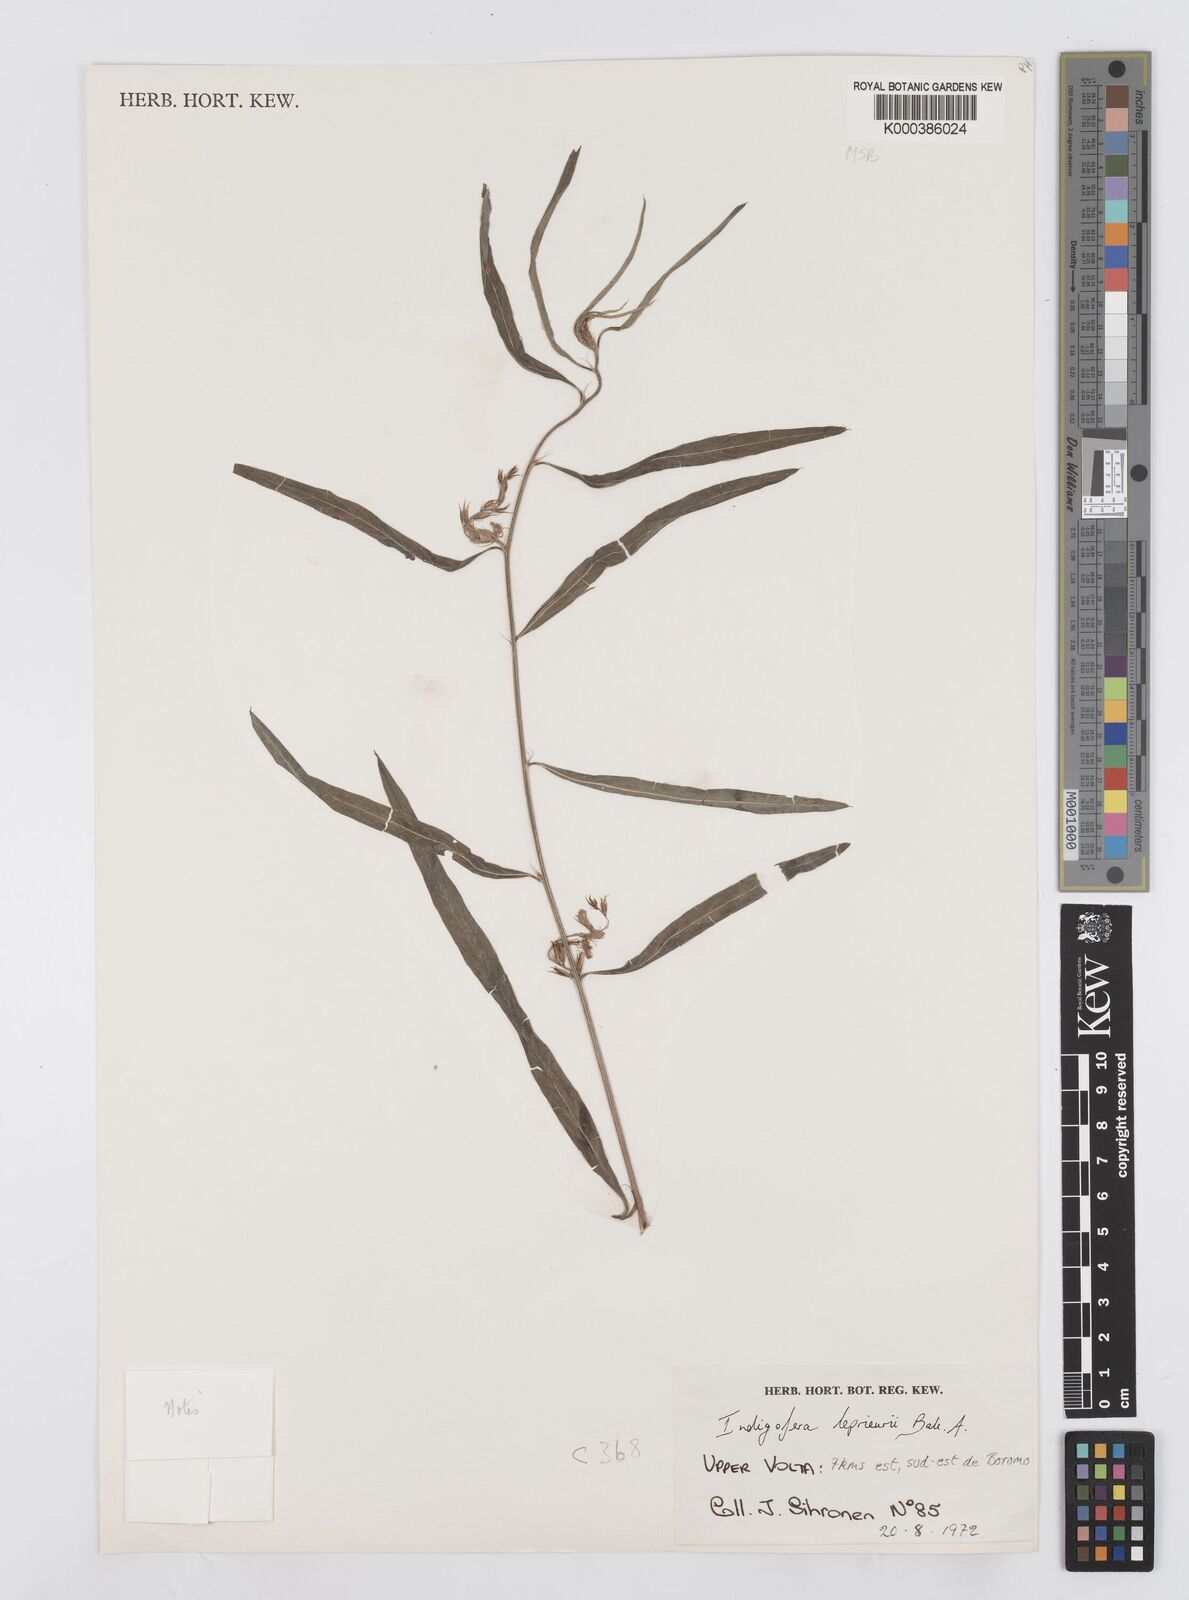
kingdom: Plantae
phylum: Tracheophyta
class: Magnoliopsida
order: Fabales
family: Fabaceae
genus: Indigofera
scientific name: Indigofera leprieurii
